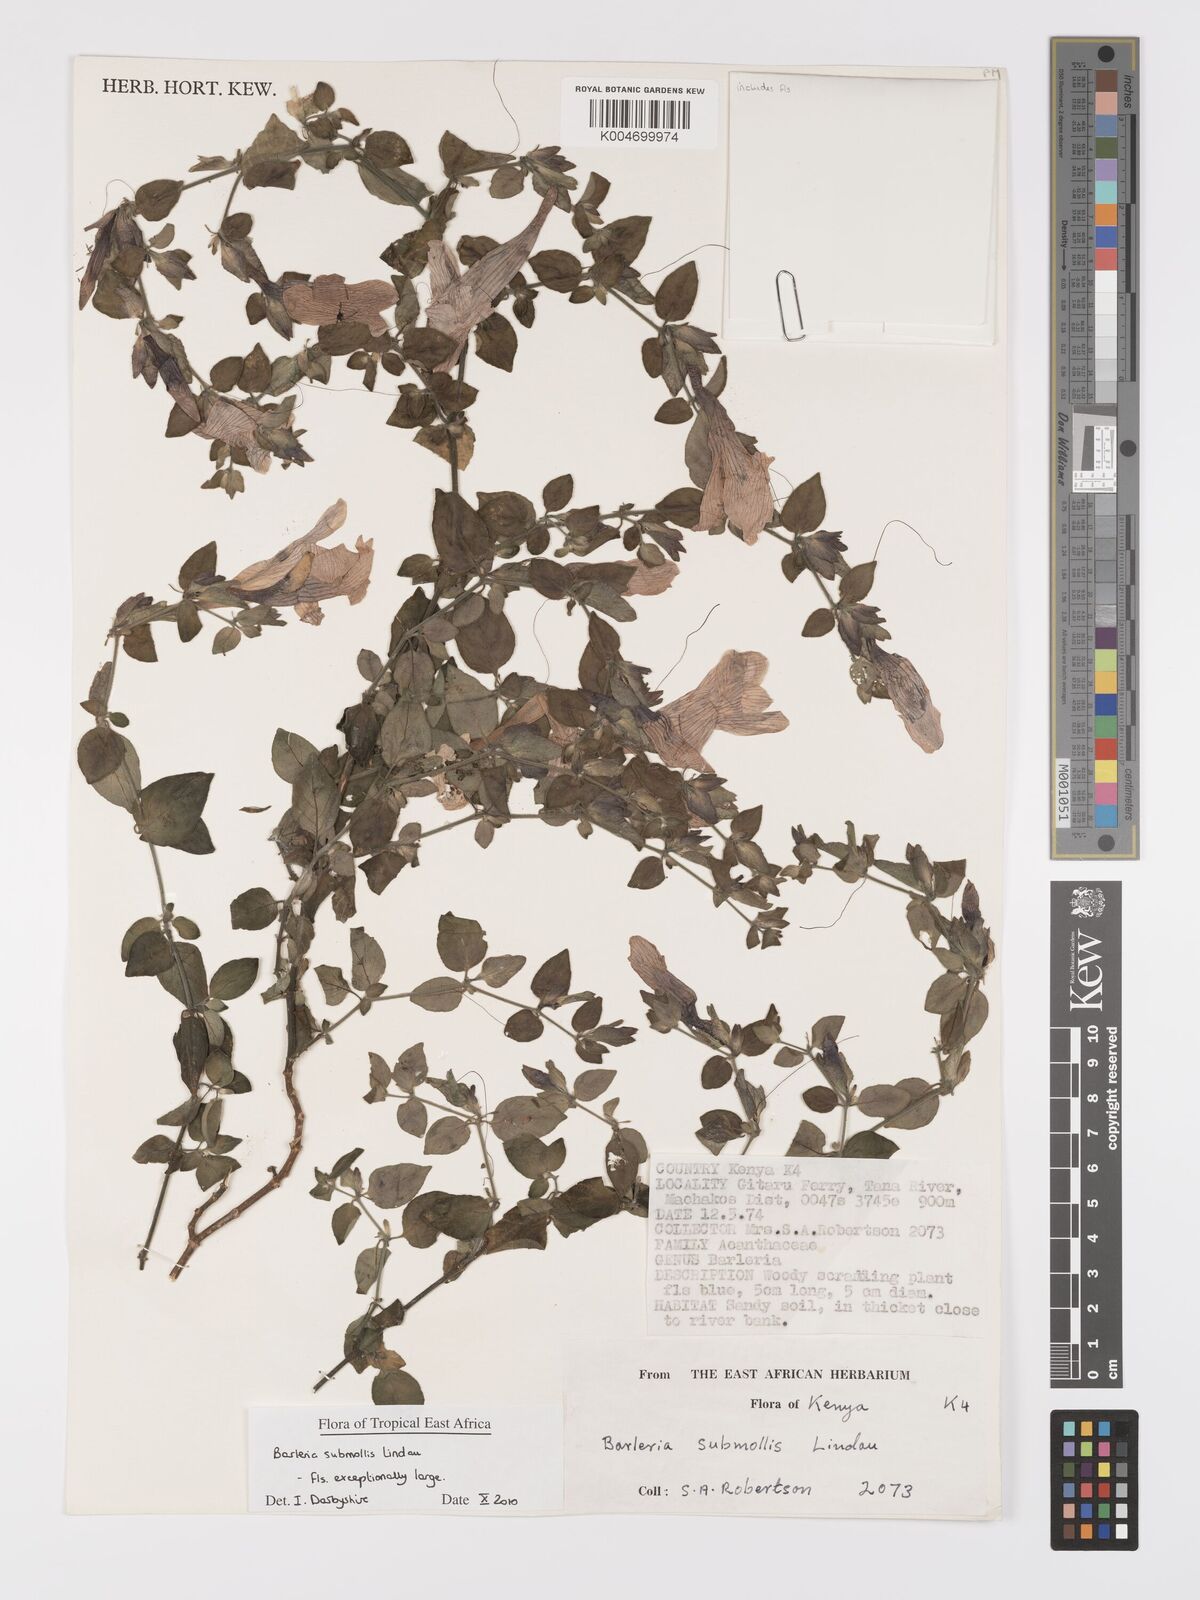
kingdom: Plantae
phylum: Tracheophyta
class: Magnoliopsida
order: Lamiales
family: Acanthaceae
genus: Barleria
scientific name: Barleria submollis
